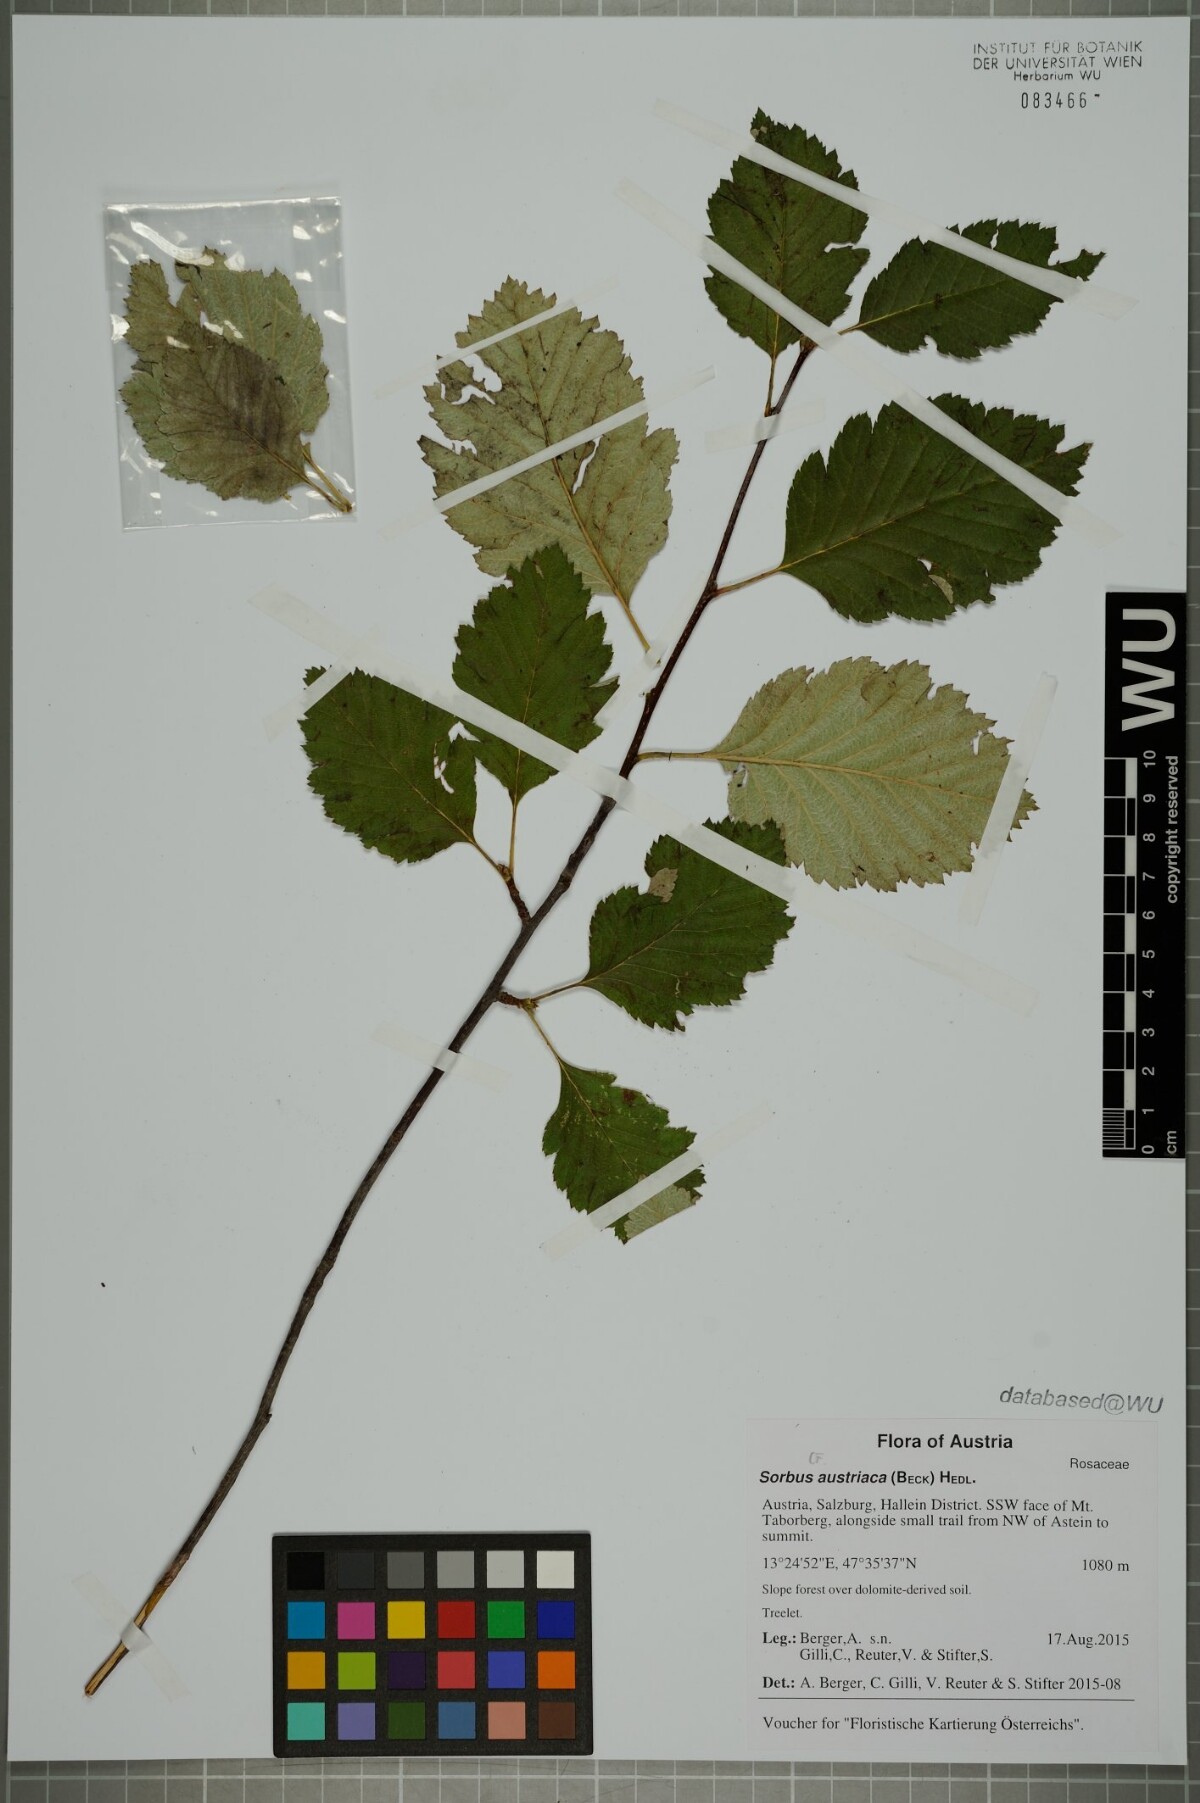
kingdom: Plantae
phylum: Tracheophyta
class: Magnoliopsida
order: Rosales
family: Rosaceae
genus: Hedlundia
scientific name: Hedlundia austriaca
